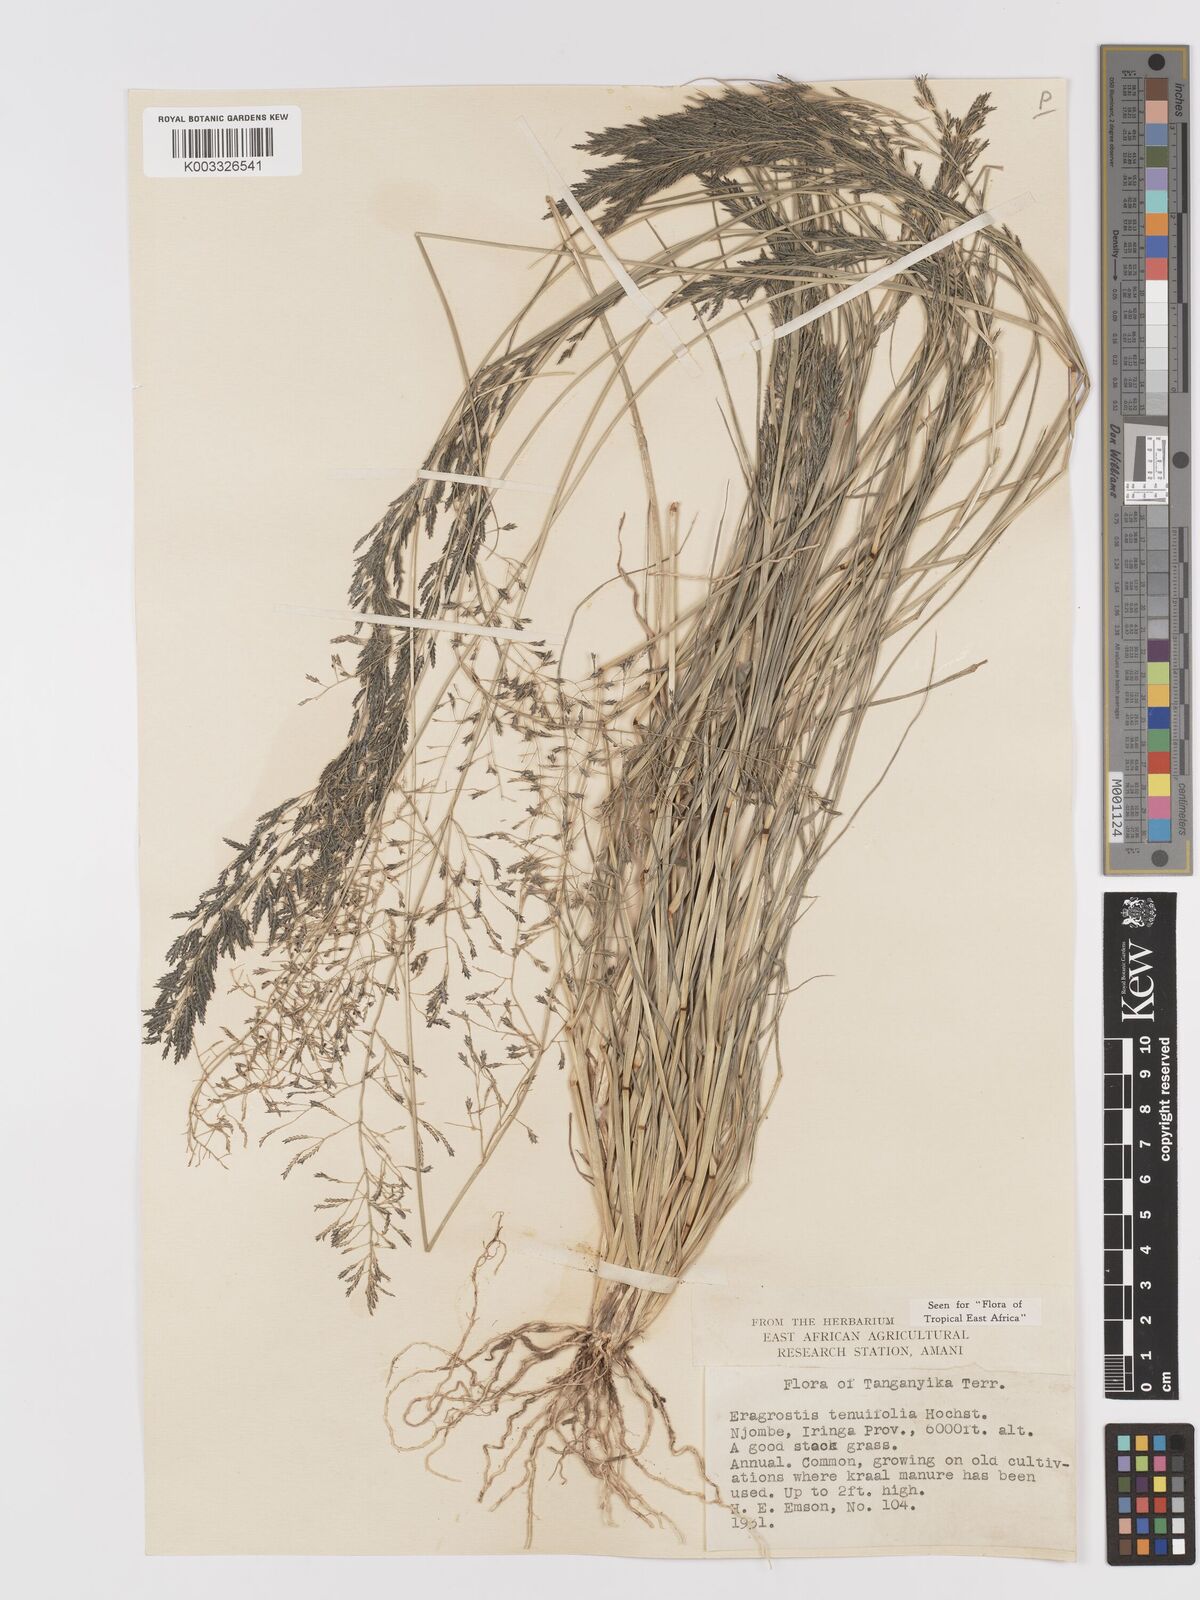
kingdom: Plantae
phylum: Tracheophyta
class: Liliopsida
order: Poales
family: Poaceae
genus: Eragrostis
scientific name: Eragrostis tenuifolia
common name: Elastic grass
